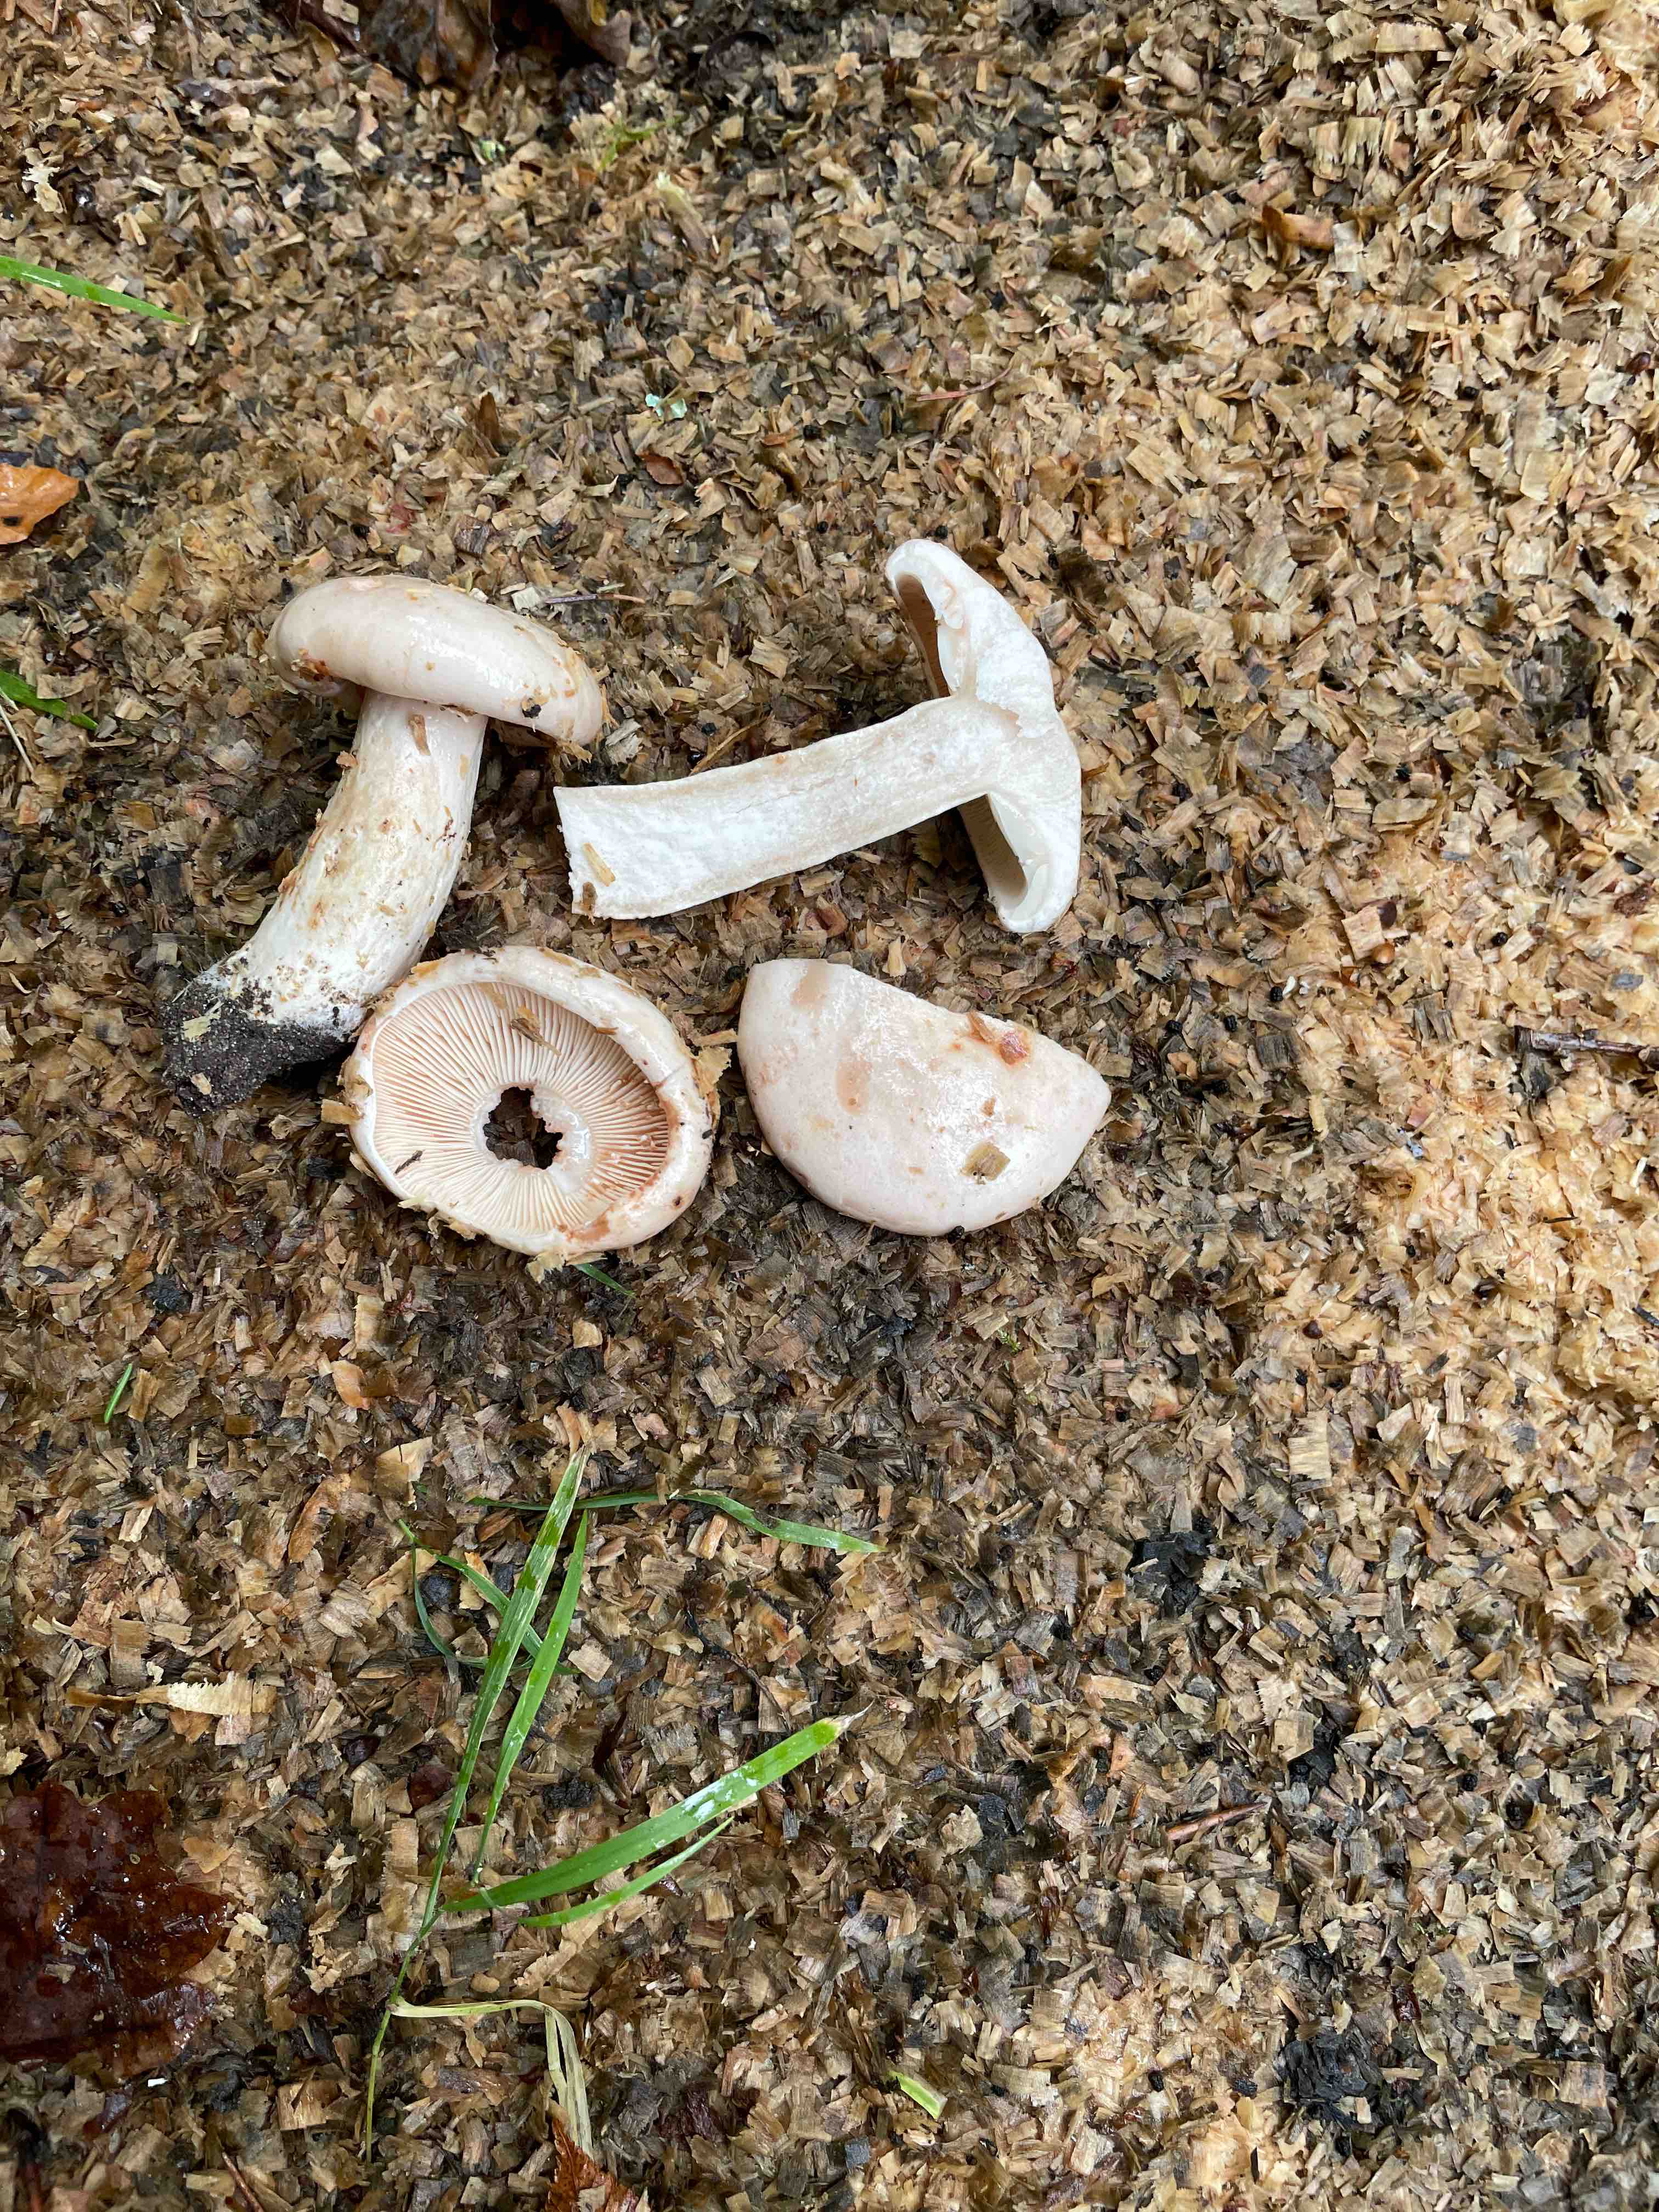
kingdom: Fungi
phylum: Basidiomycota
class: Agaricomycetes
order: Russulales
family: Russulaceae
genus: Lactarius
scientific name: Lactarius pallidus
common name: bleg mælkehat
